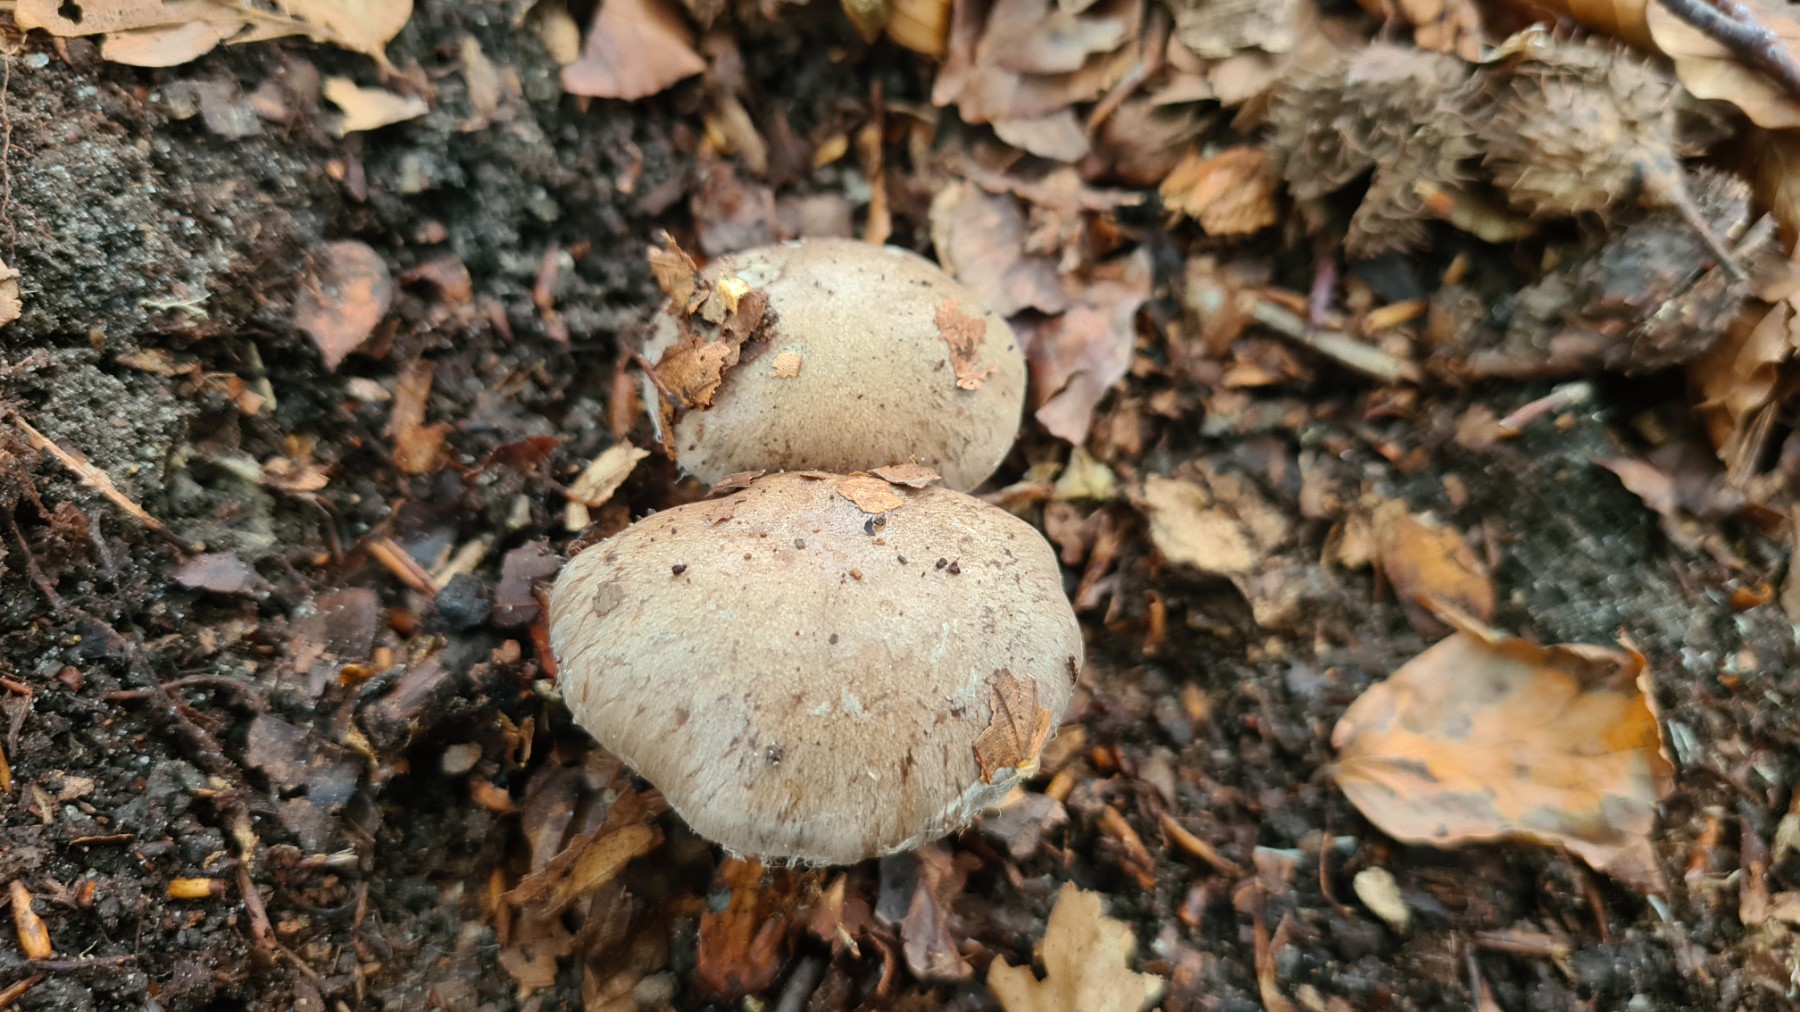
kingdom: Fungi
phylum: Basidiomycota
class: Agaricomycetes
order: Agaricales
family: Cortinariaceae
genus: Cortinarius
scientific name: Cortinarius
